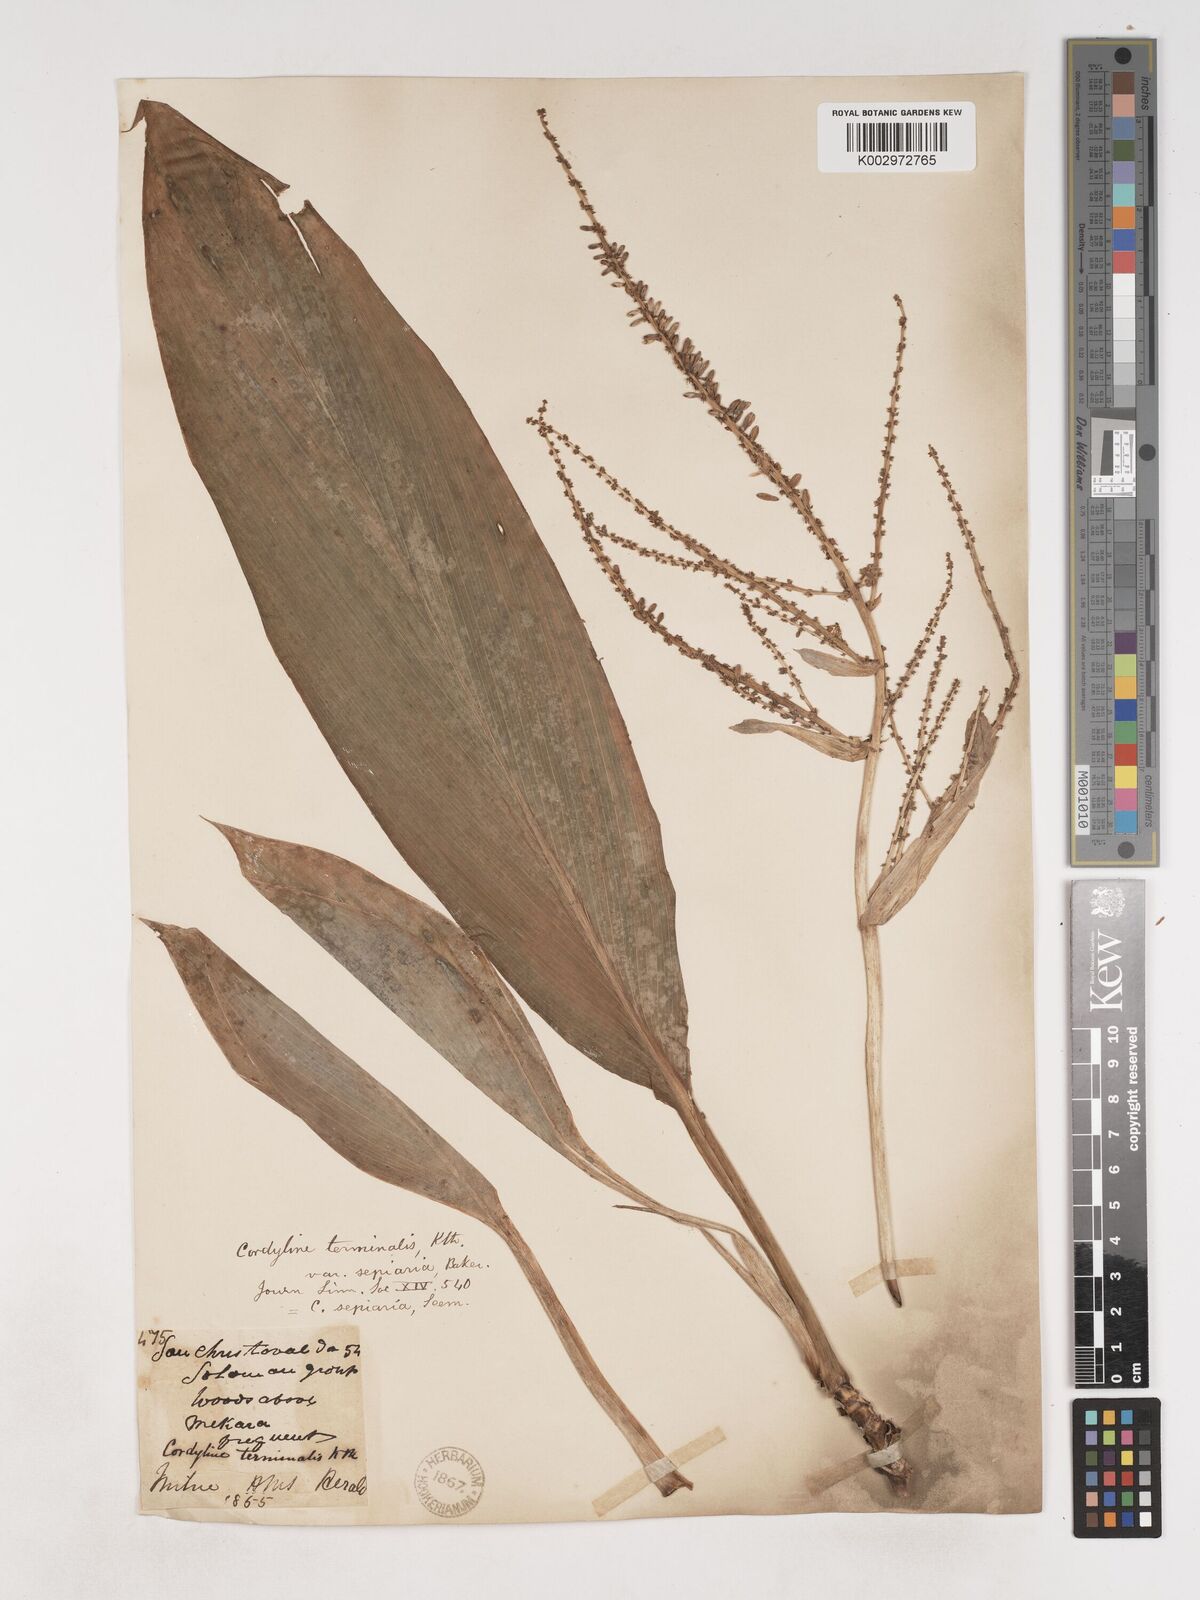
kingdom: Plantae
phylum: Tracheophyta
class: Liliopsida
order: Asparagales
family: Asparagaceae
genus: Cordyline
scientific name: Cordyline fruticosa
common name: Good-luck-plant
